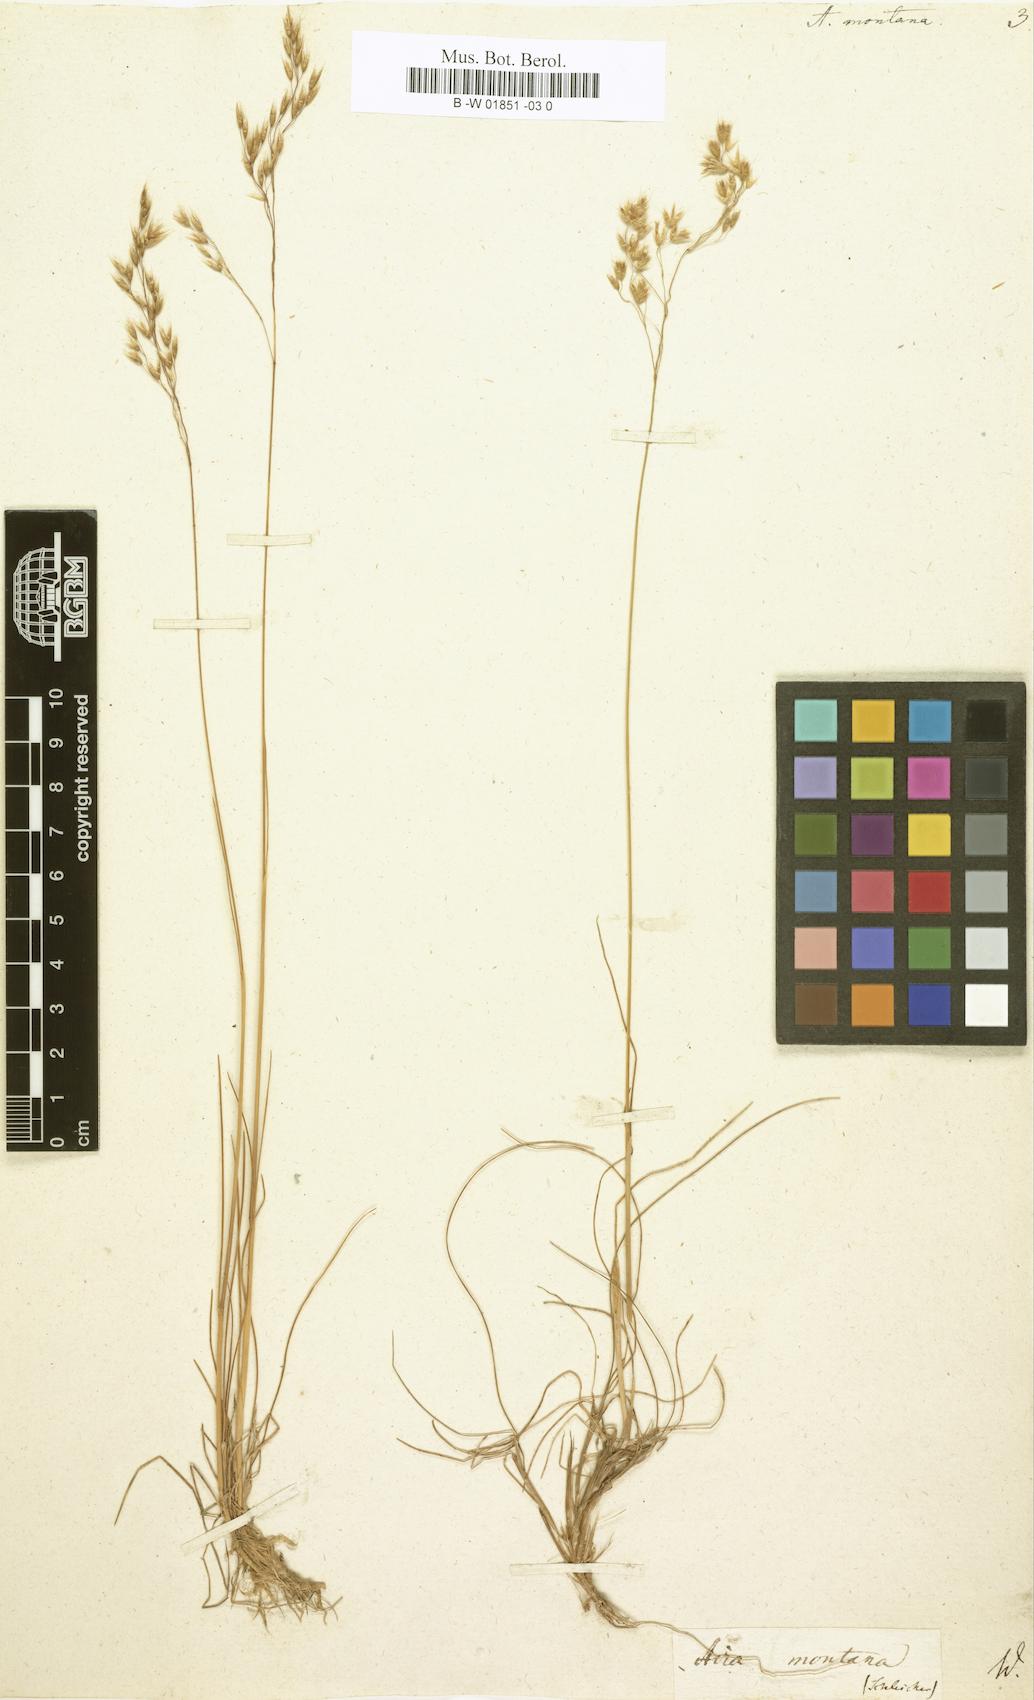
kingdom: Plantae
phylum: Tracheophyta
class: Liliopsida
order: Poales
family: Poaceae
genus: Avenella
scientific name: Avenella flexuosa
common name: Wavy hairgrass
